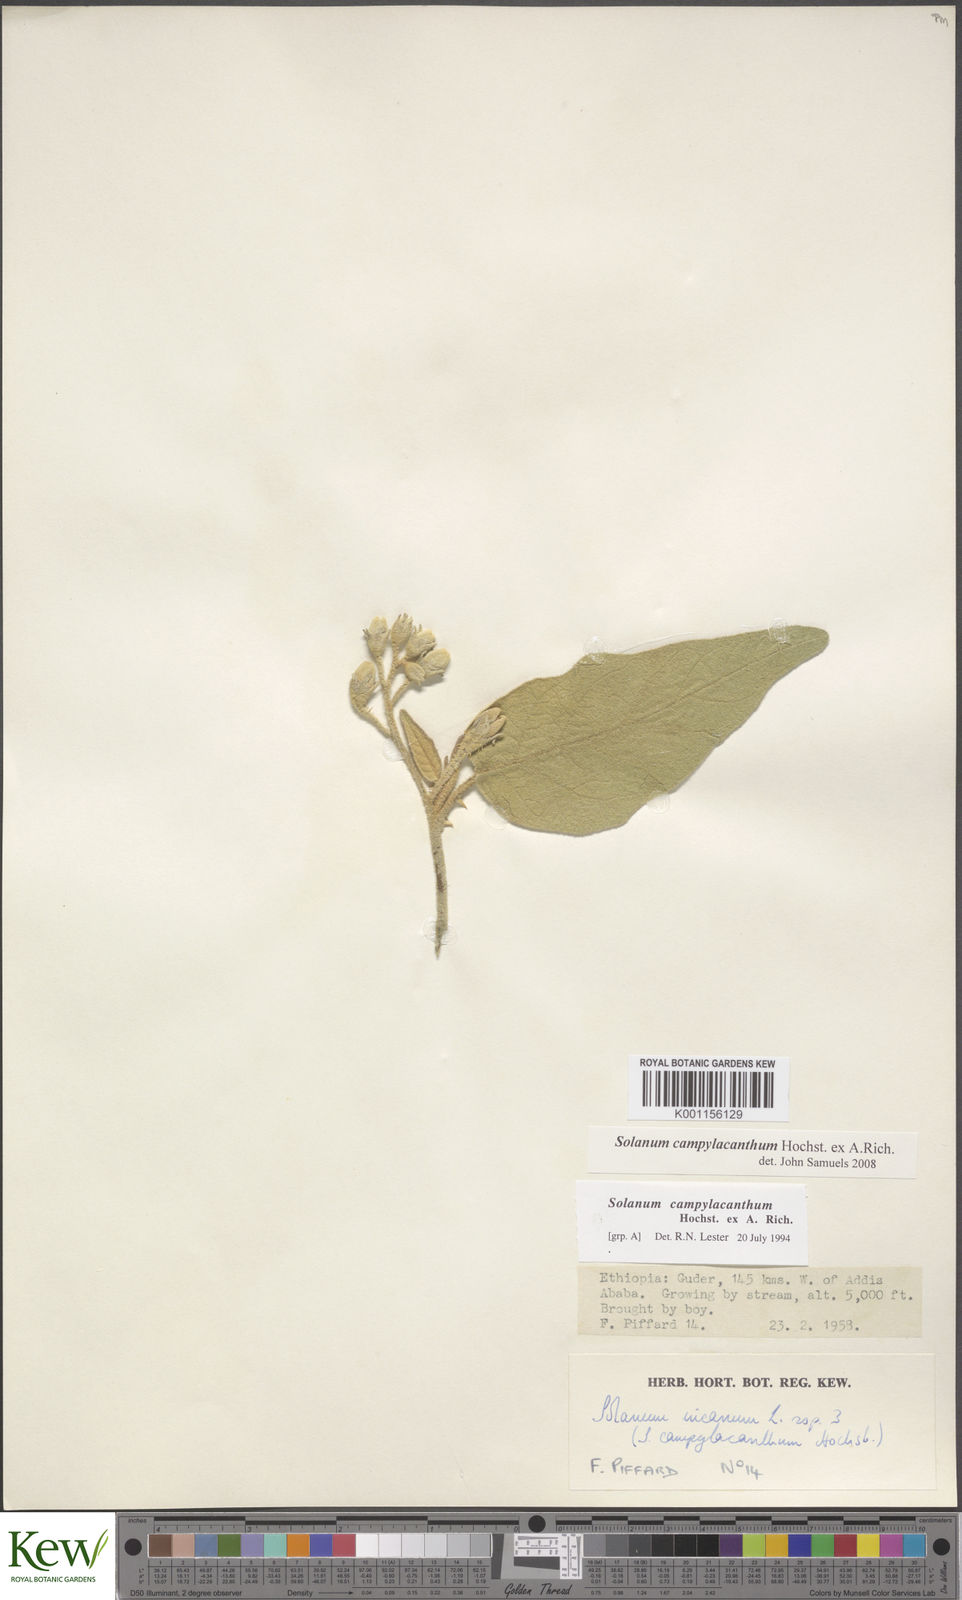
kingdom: Plantae
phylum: Tracheophyta
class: Magnoliopsida
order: Solanales
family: Solanaceae
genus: Solanum
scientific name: Solanum campylacanthum
